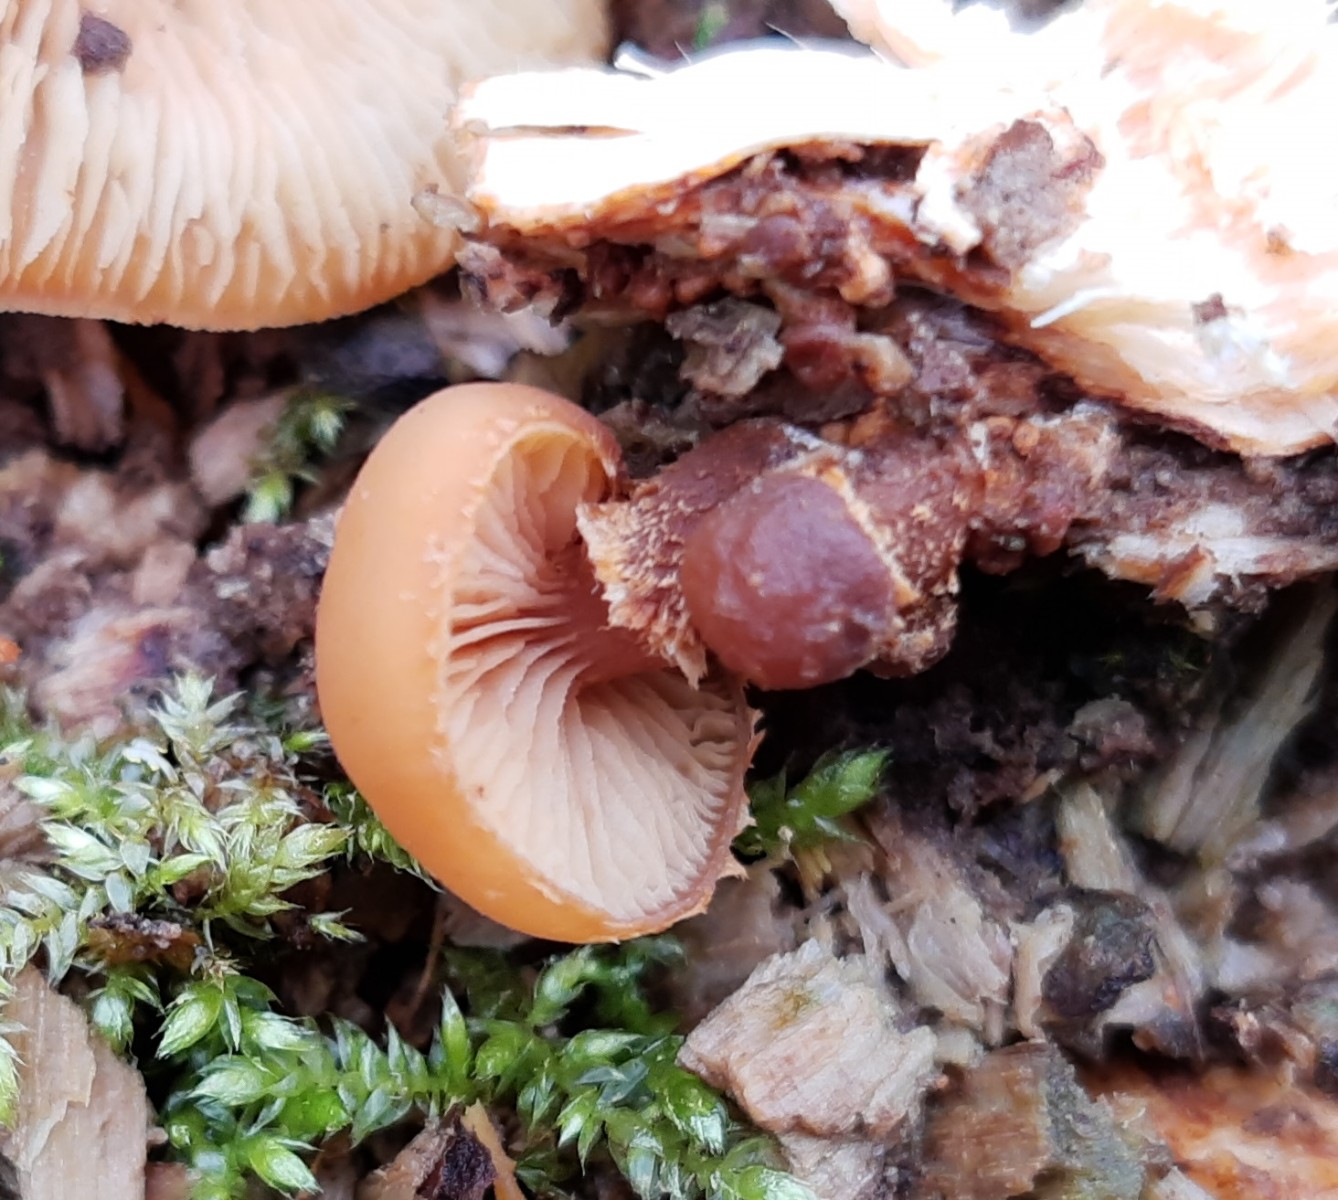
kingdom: Fungi
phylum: Basidiomycota
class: Agaricomycetes
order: Agaricales
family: Strophariaceae
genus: Kuehneromyces
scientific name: Kuehneromyces mutabilis
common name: foranderlig skælhat
